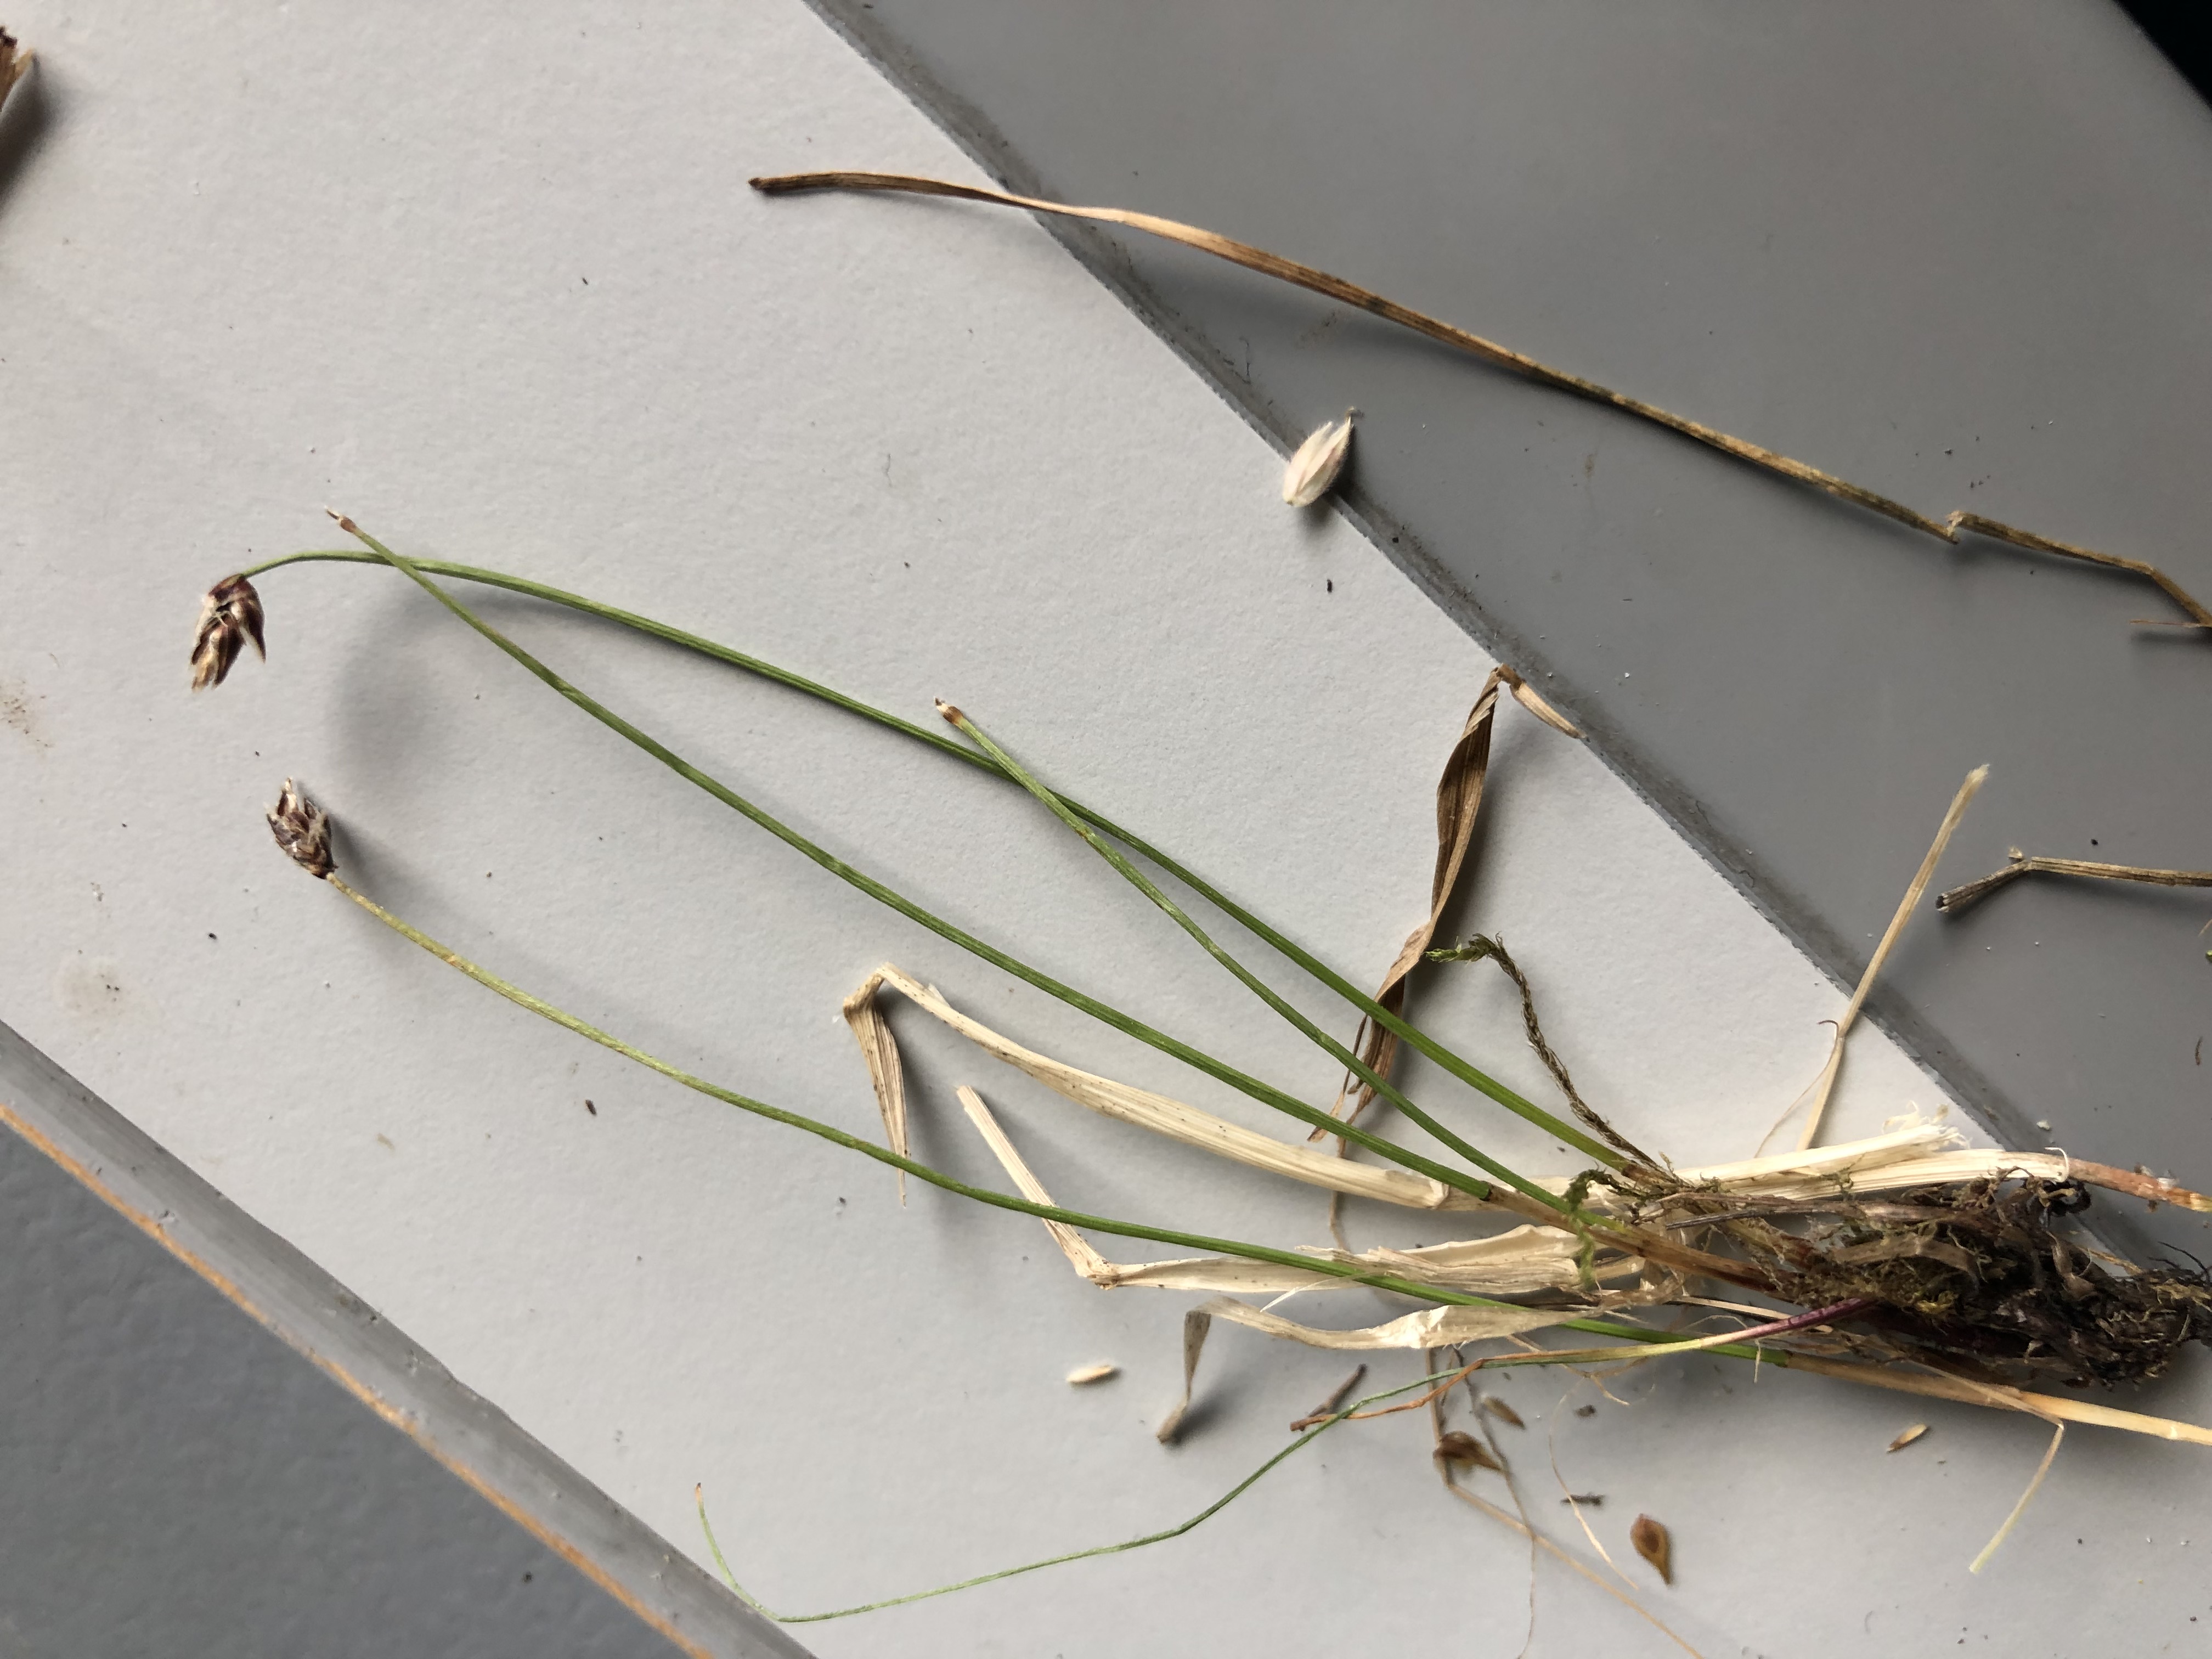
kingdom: Plantae
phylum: Tracheophyta
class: Liliopsida
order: Poales
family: Cyperaceae
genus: Eleocharis
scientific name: Eleocharis uniglumis
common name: Enskællet sumpstrå
